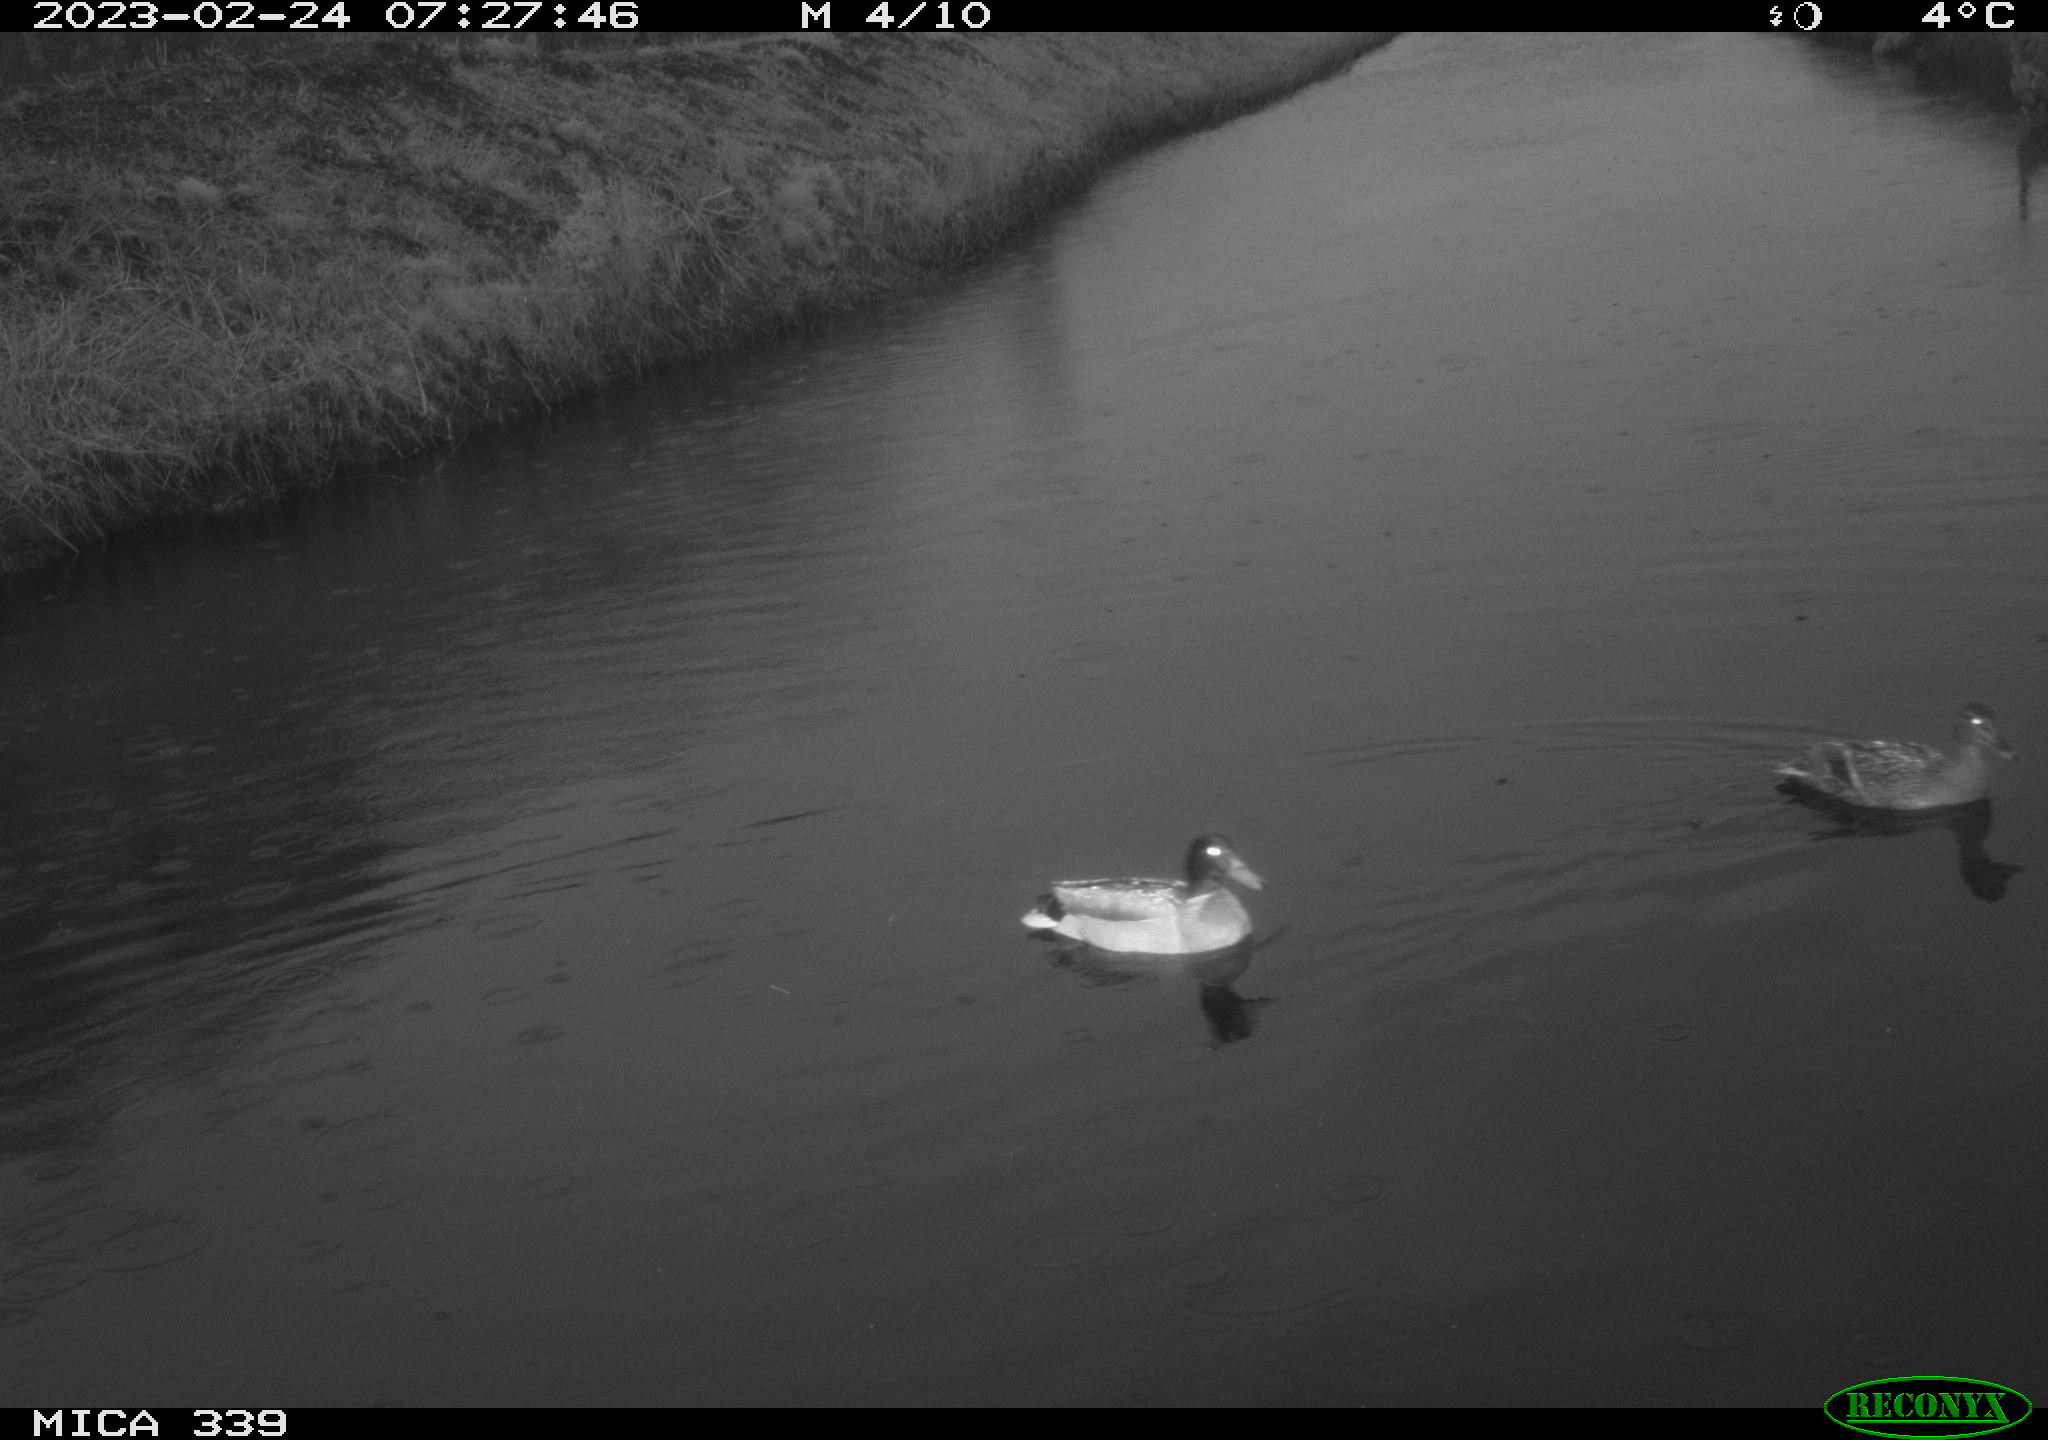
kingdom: Animalia
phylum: Chordata
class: Aves
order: Anseriformes
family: Anatidae
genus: Anas
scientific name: Anas
